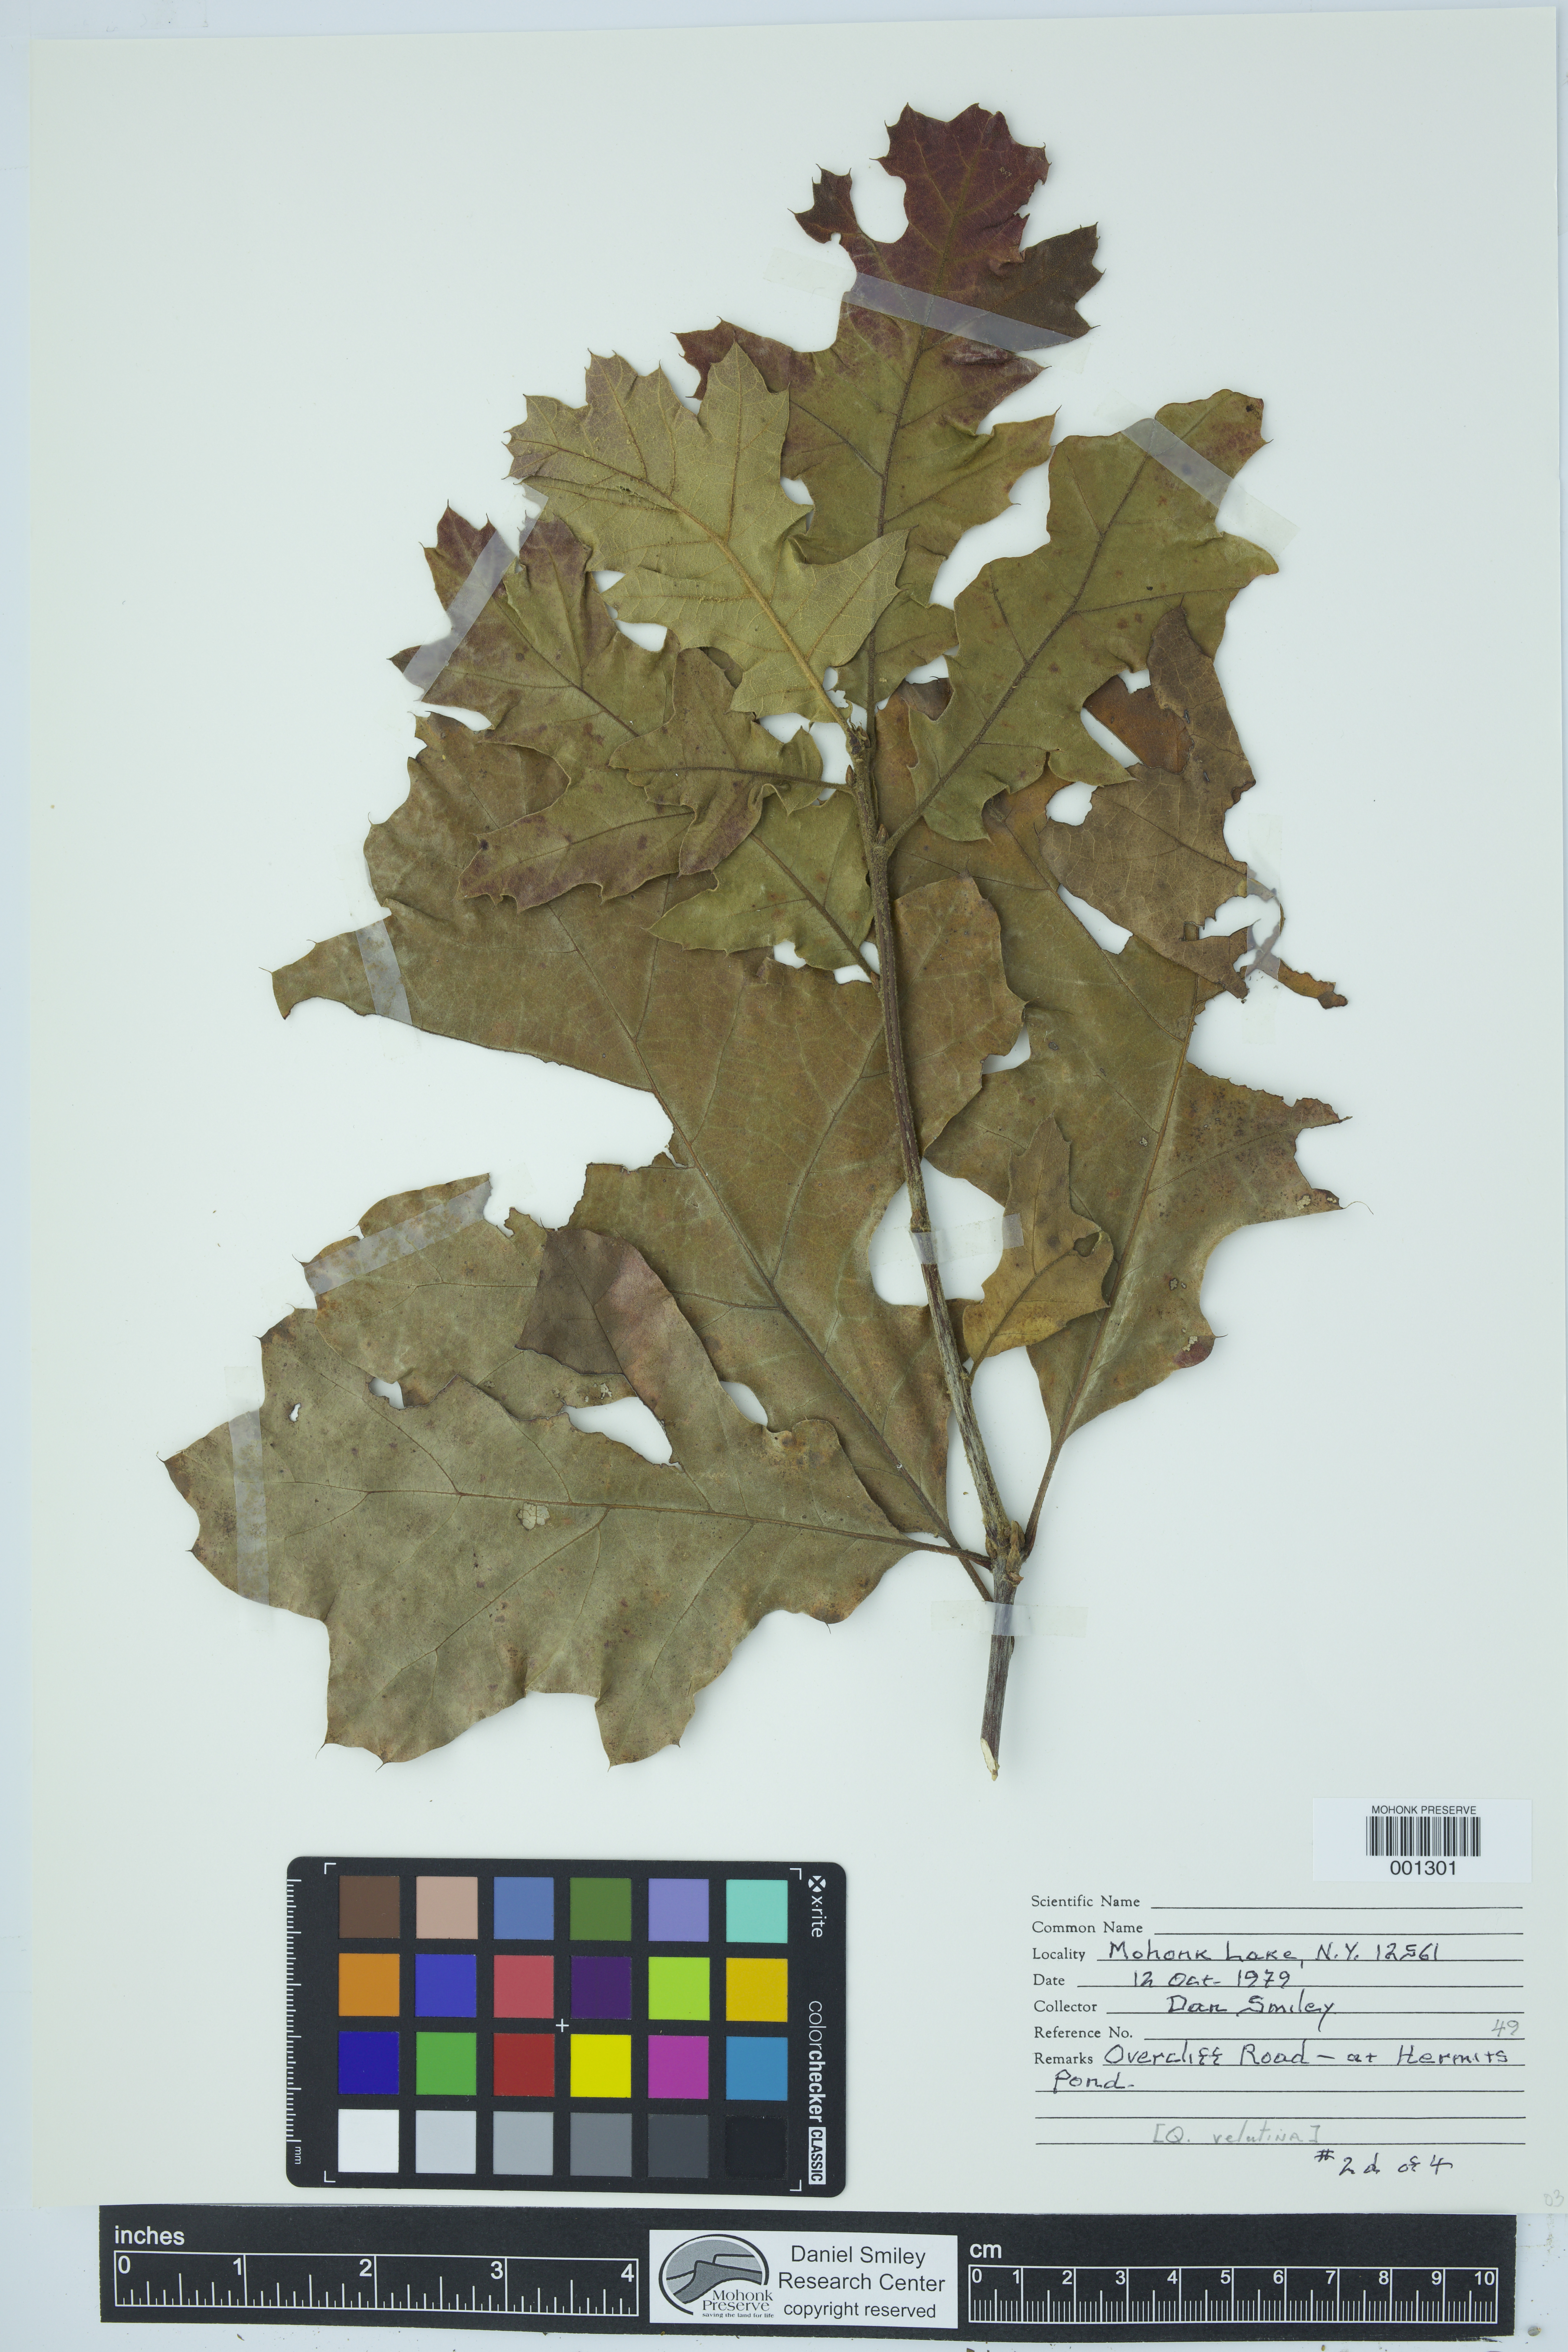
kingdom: Plantae
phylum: Tracheophyta
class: Magnoliopsida
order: Fagales
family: Fagaceae
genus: Quercus
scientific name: Quercus velutina
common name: Black oak
